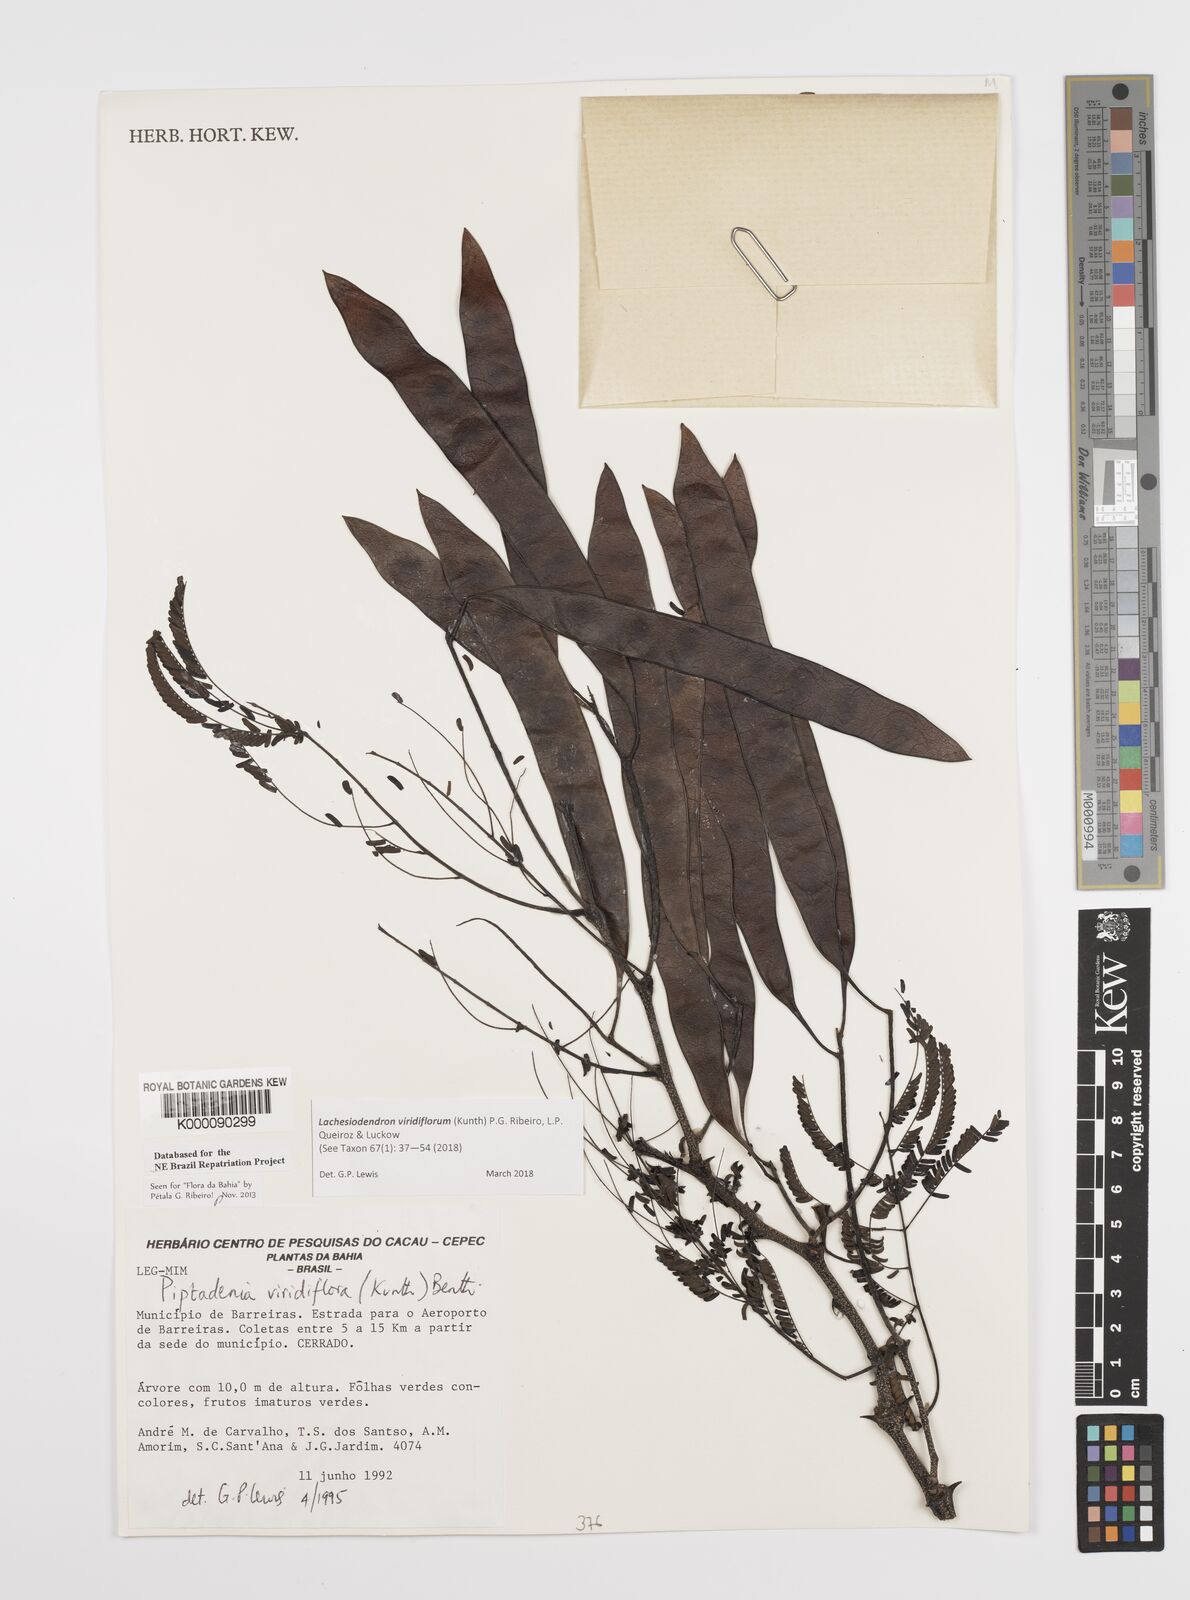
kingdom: Plantae
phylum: Tracheophyta
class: Magnoliopsida
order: Fabales
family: Fabaceae
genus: Lachesiodendron
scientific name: Lachesiodendron viridiflorum
